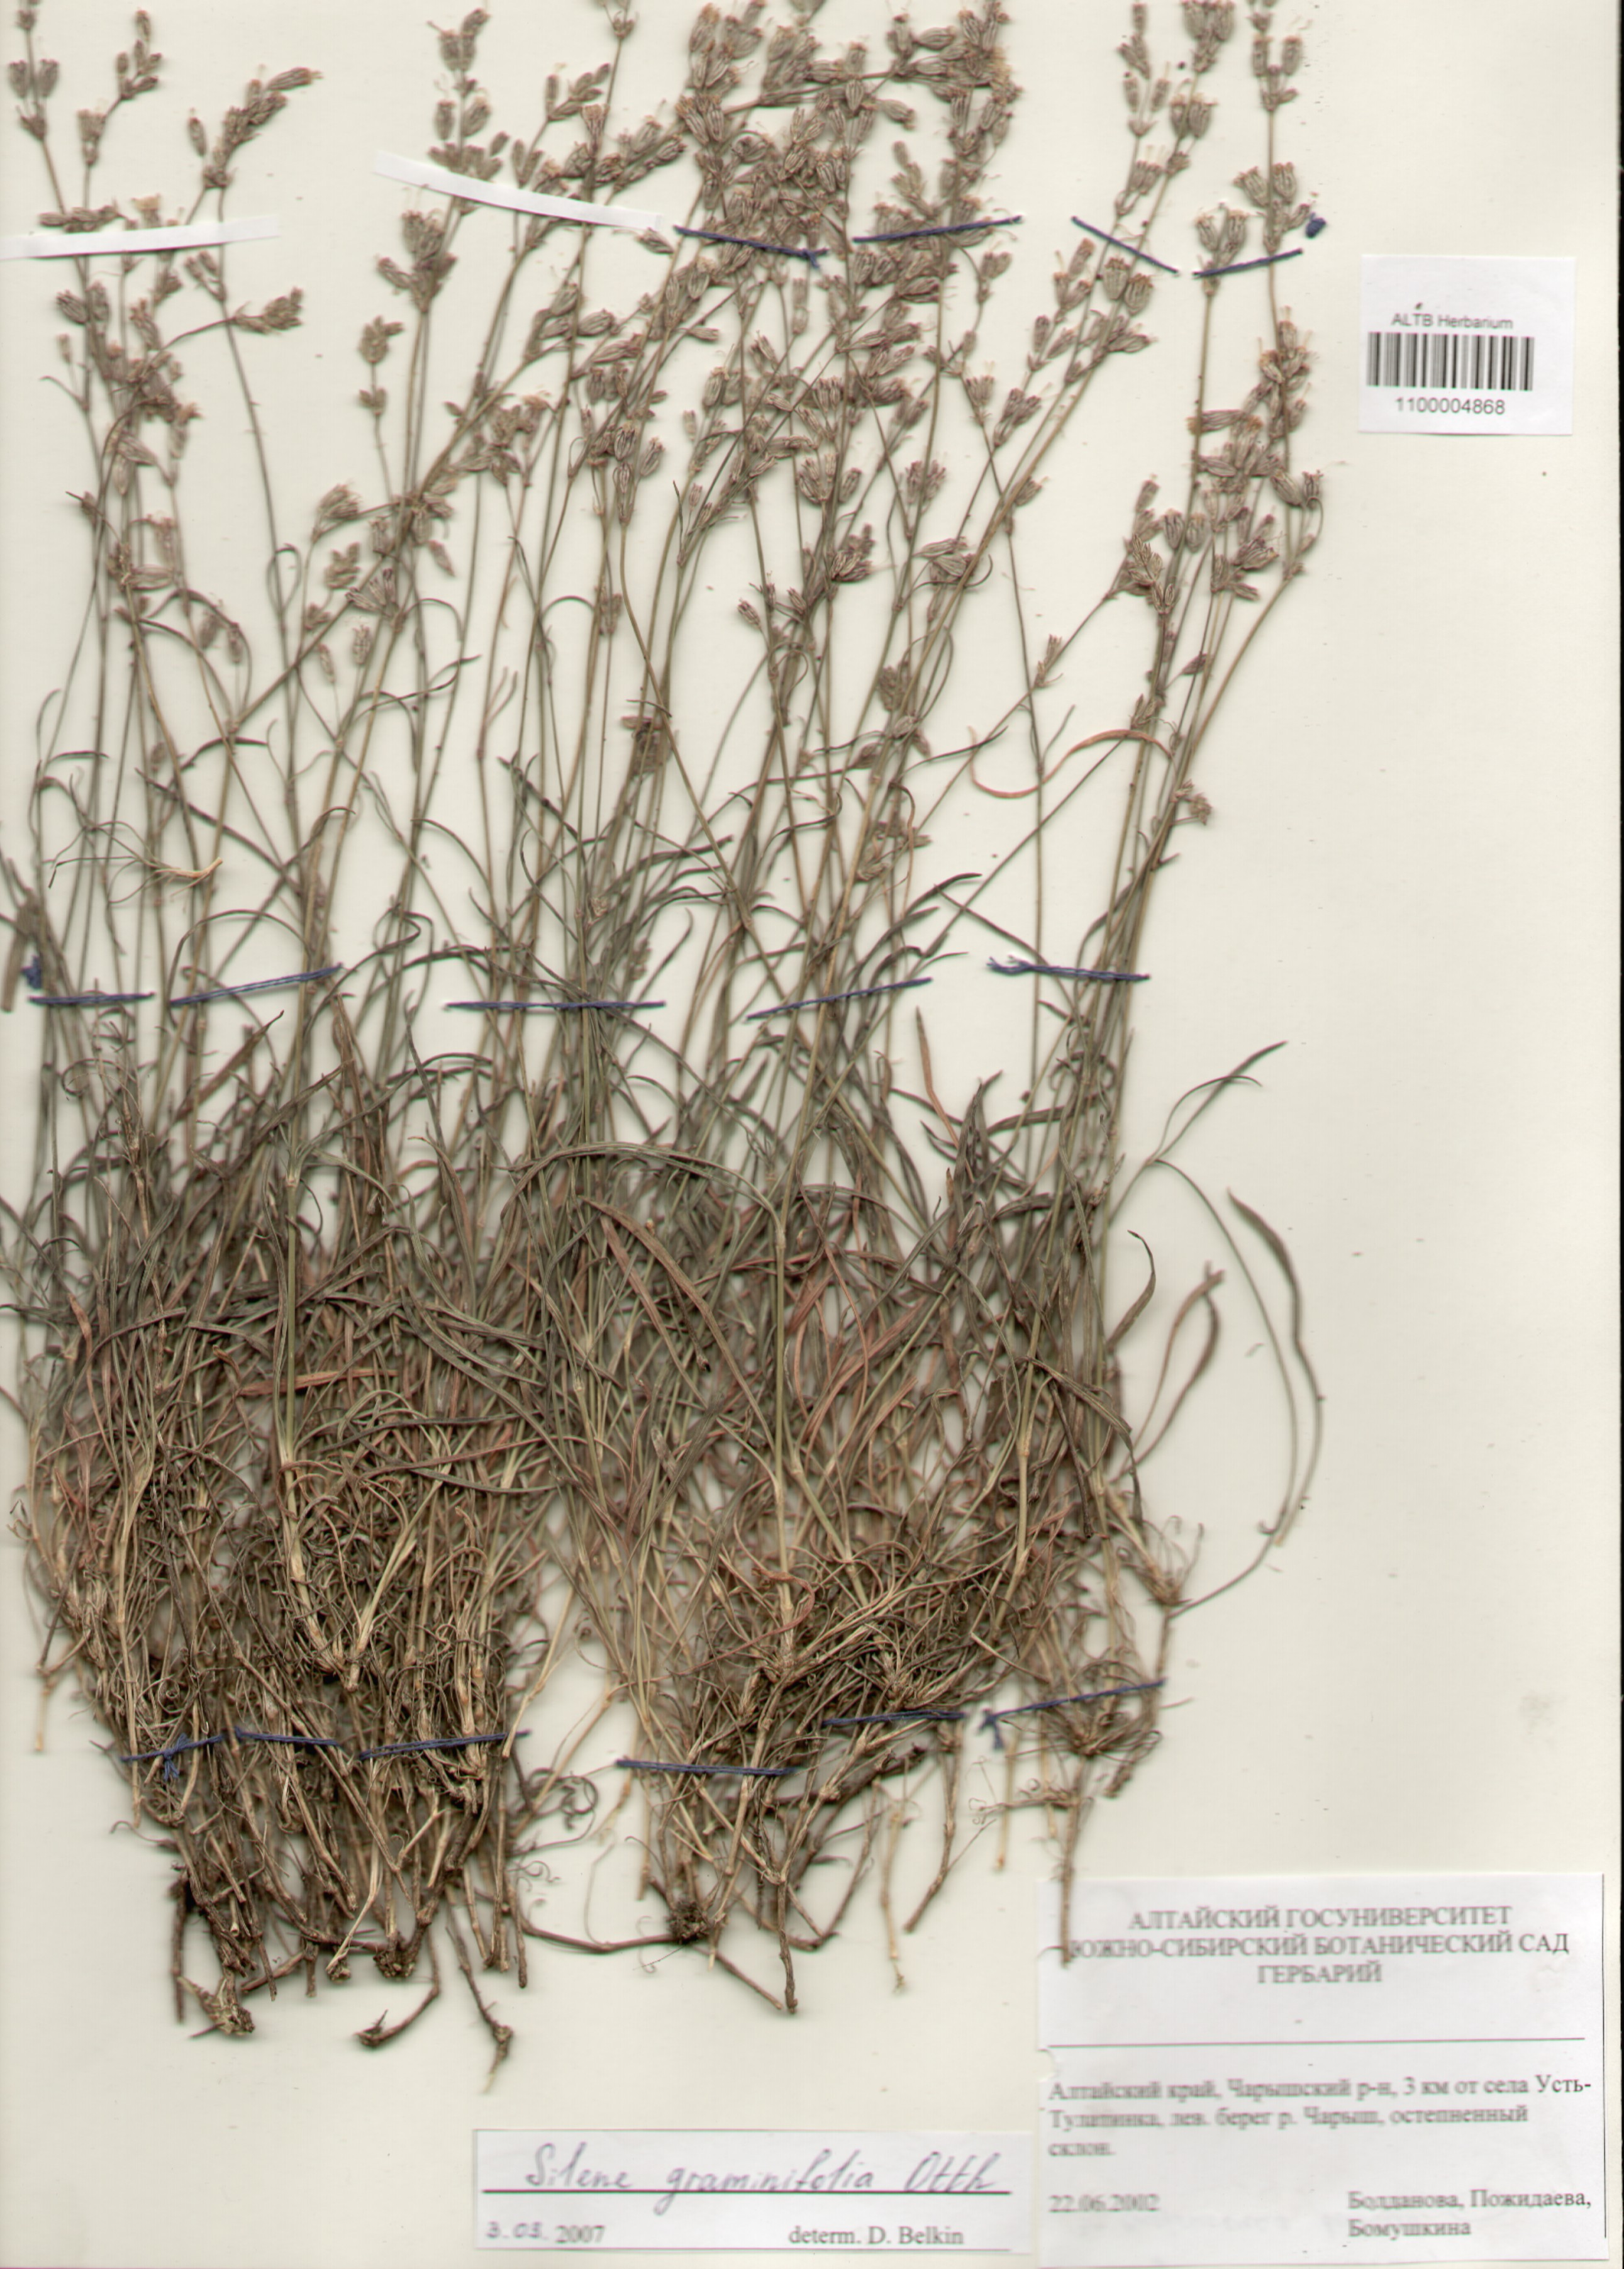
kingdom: Plantae
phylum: Tracheophyta
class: Magnoliopsida
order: Caryophyllales
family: Caryophyllaceae
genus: Silene
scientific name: Silene graminifolia
